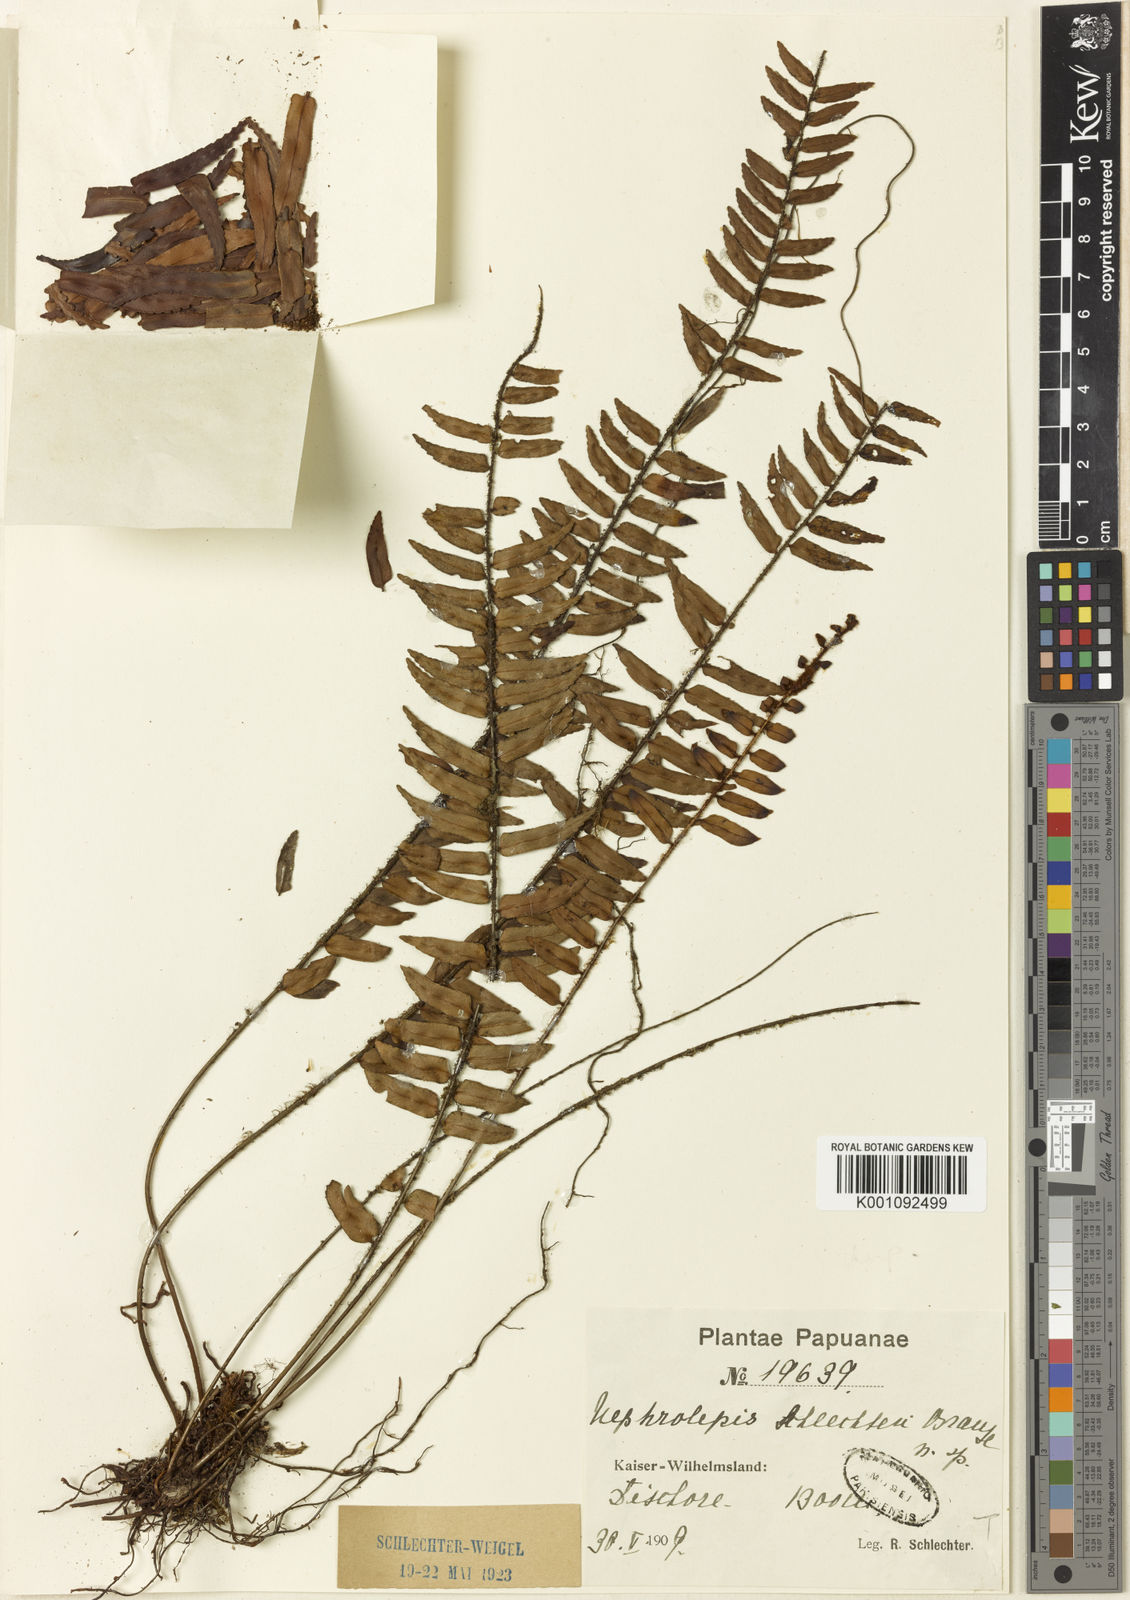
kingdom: Plantae
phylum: Tracheophyta
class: Polypodiopsida
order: Polypodiales
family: Nephrolepidaceae
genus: Nephrolepis
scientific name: Nephrolepis davalliae
